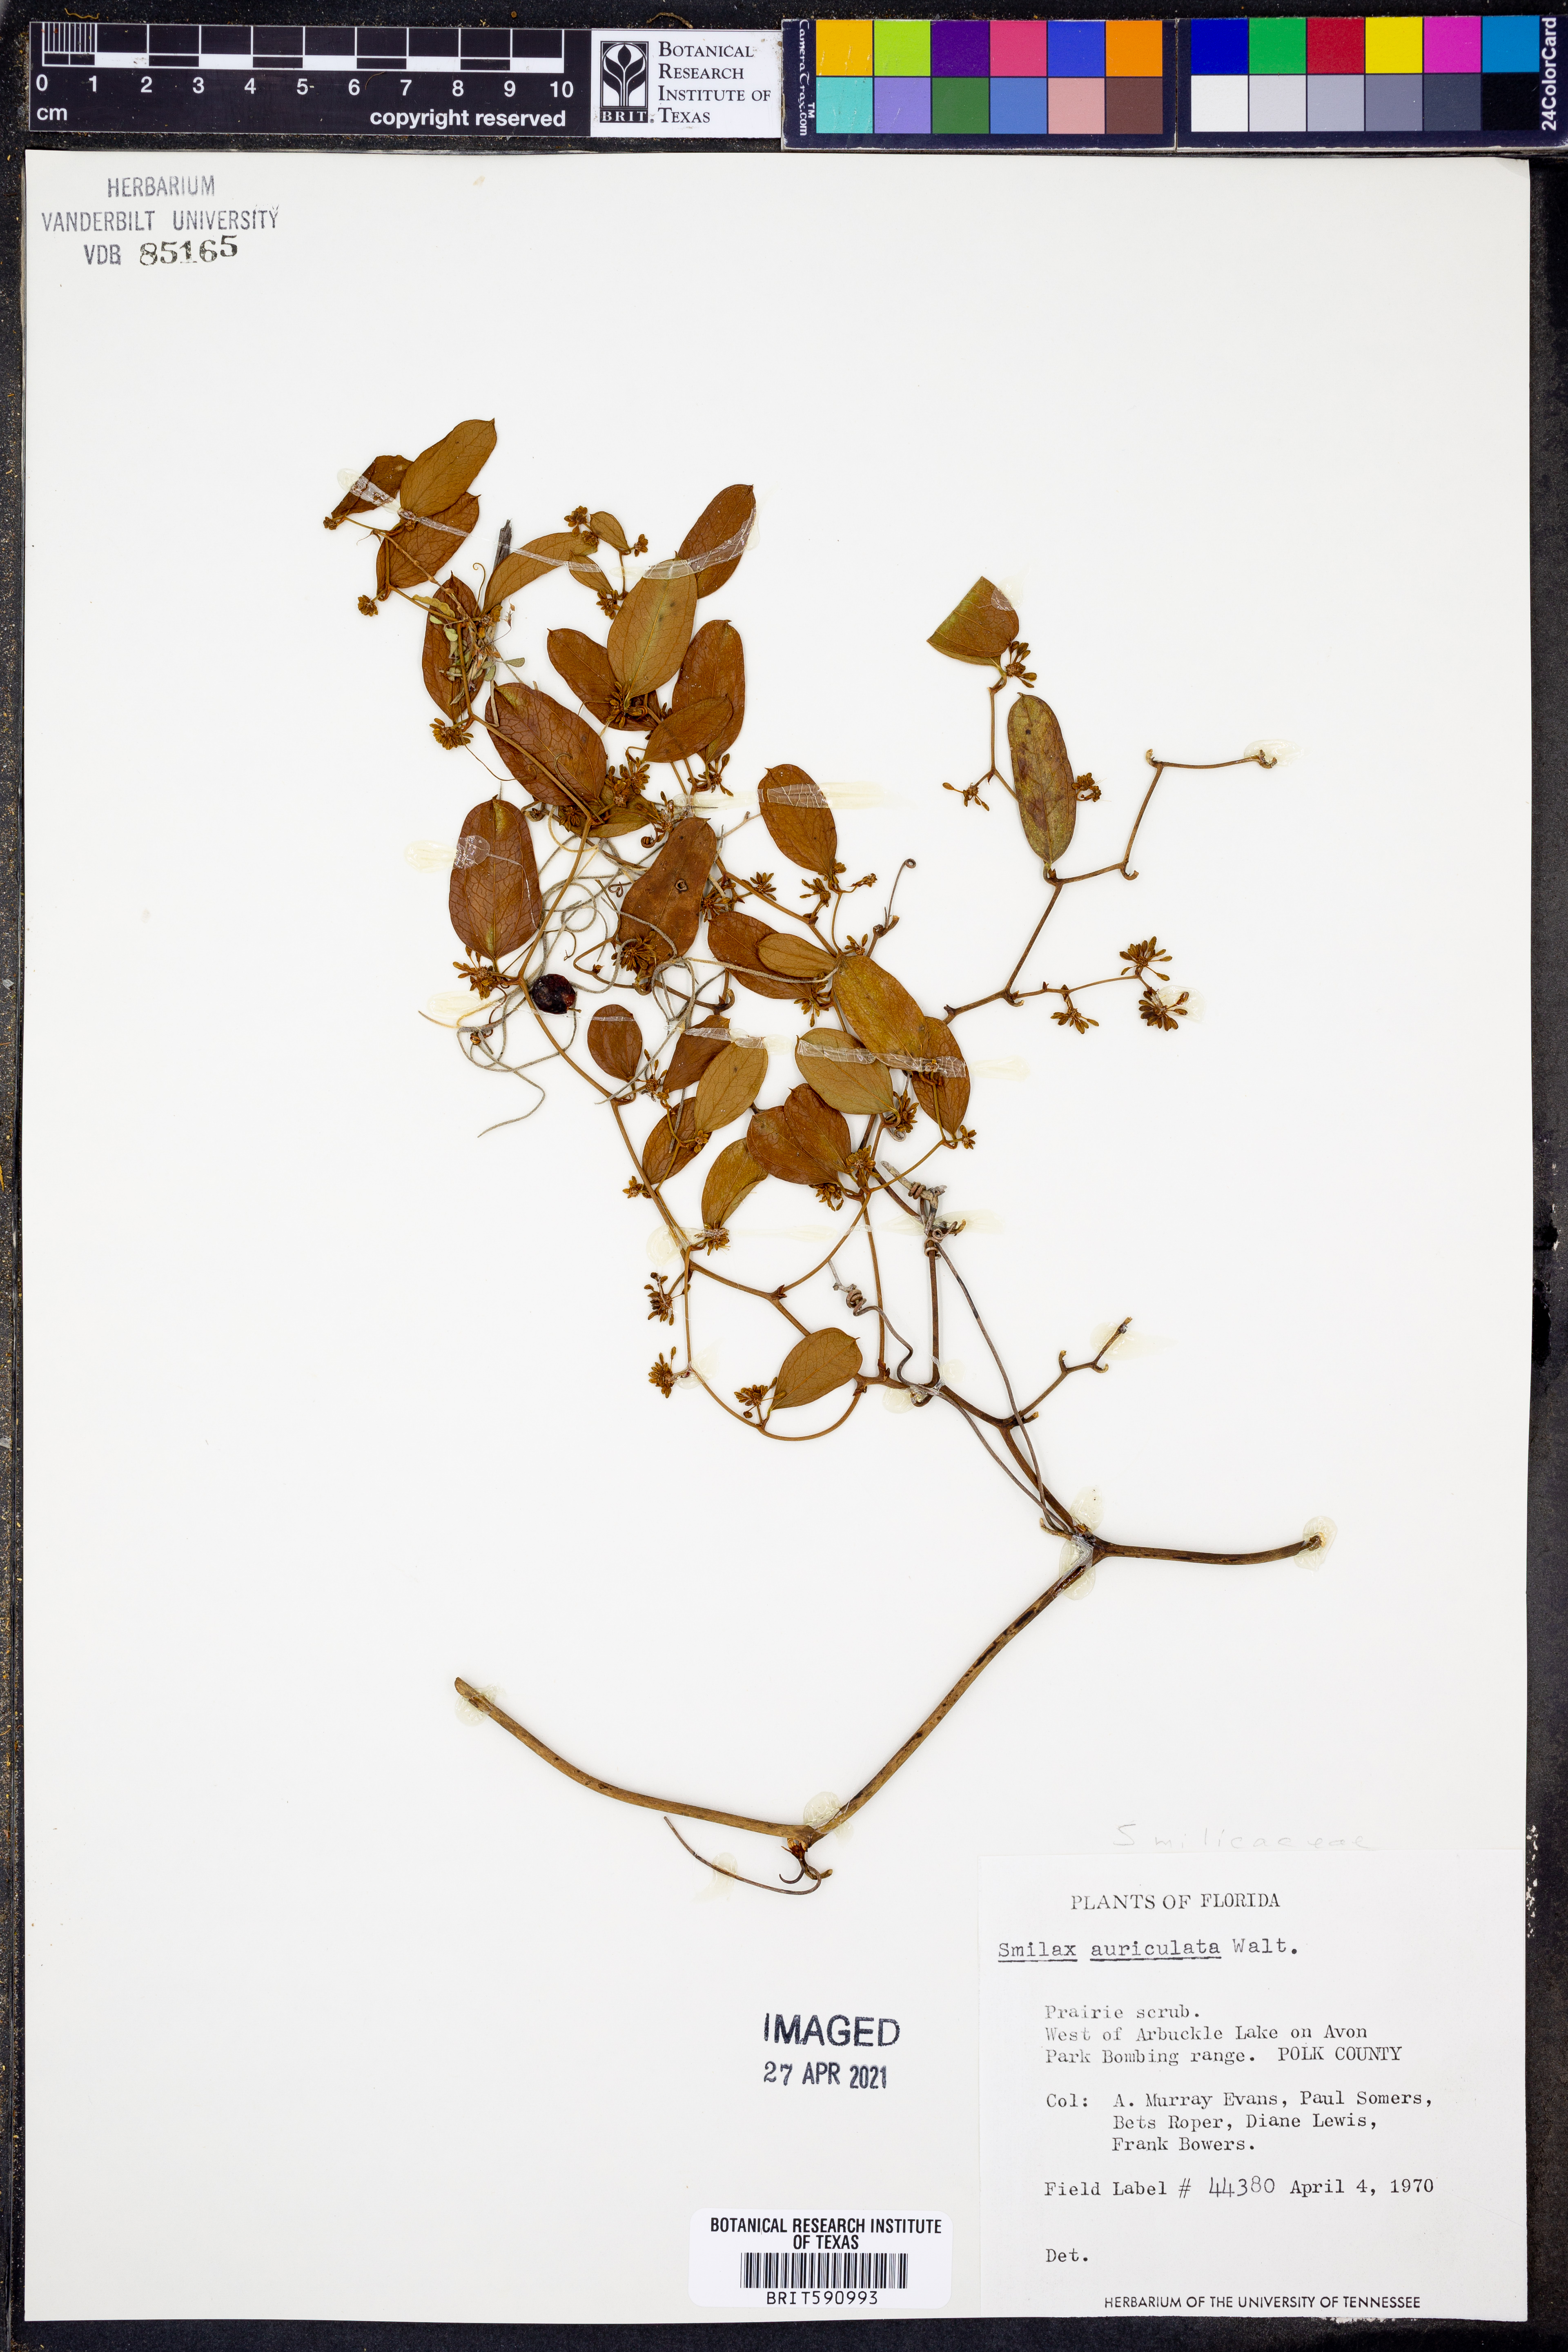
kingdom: Plantae
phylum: Tracheophyta
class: Liliopsida
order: Liliales
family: Smilacaceae
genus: Smilax
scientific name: Smilax auriculata
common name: Wild bamboo
